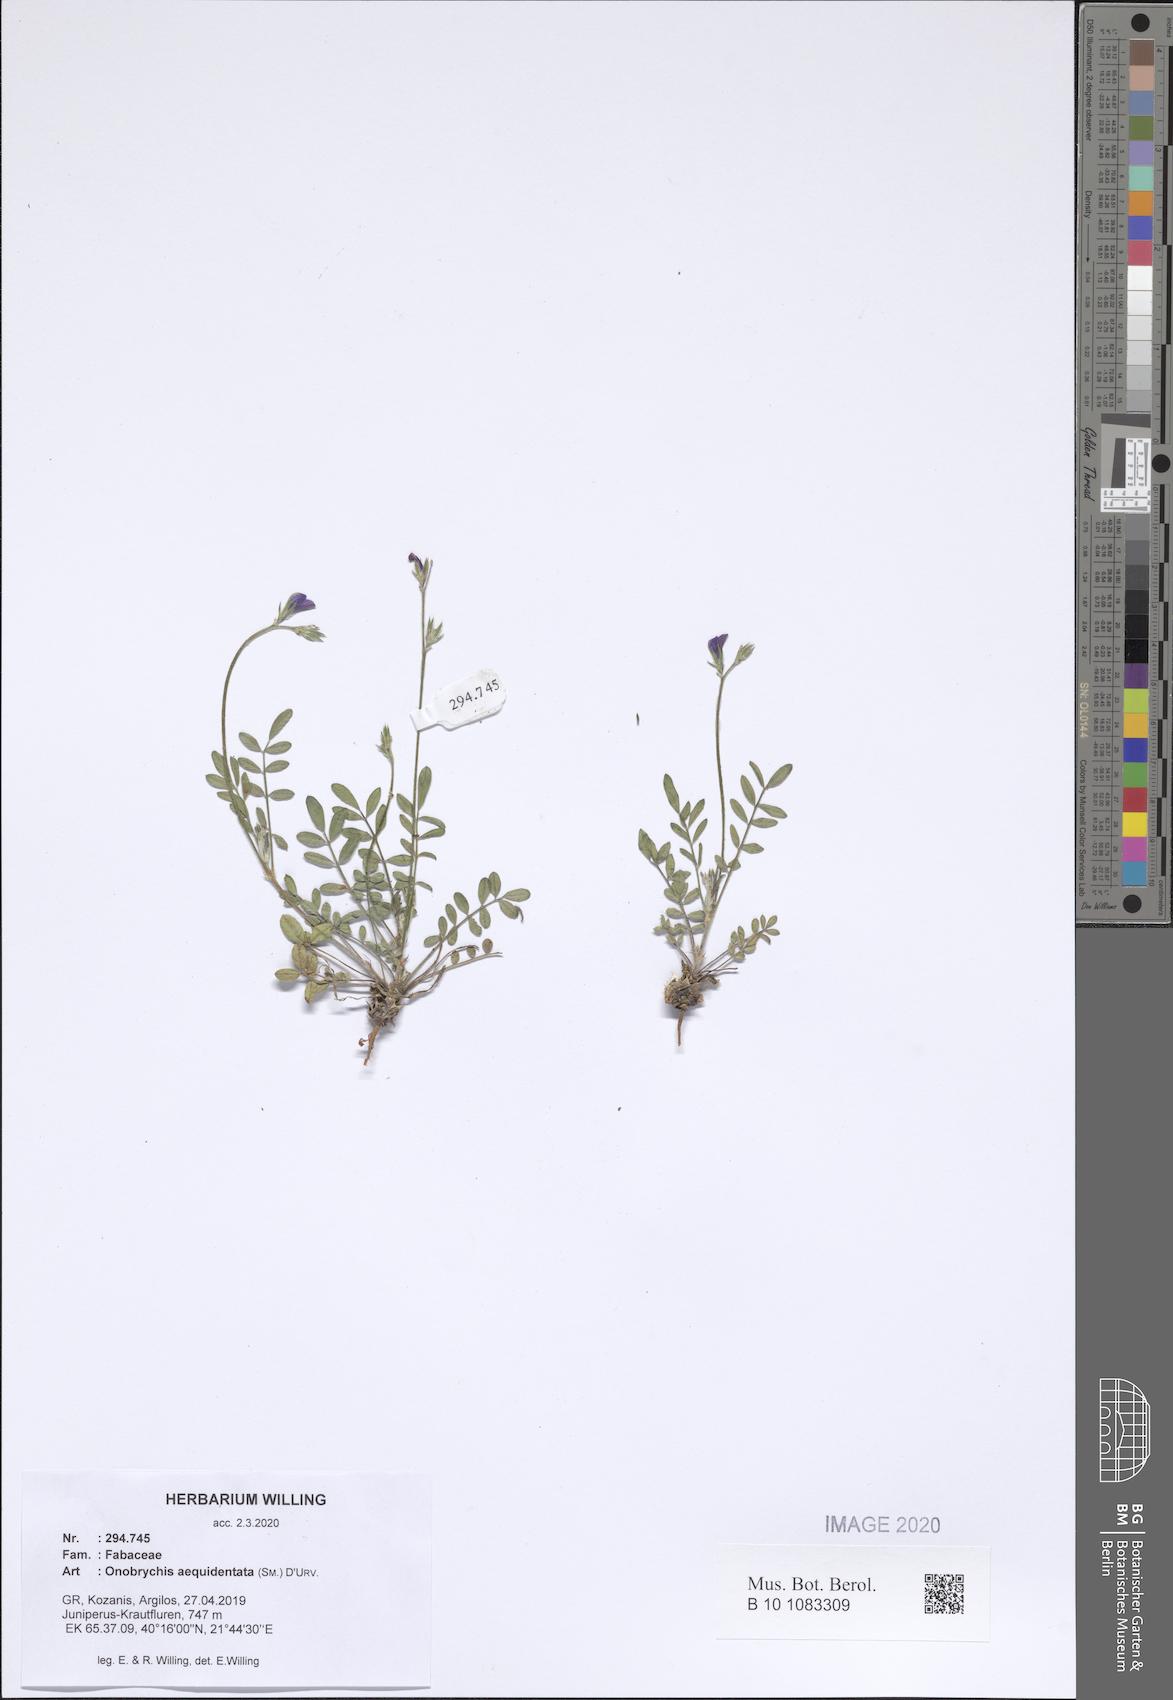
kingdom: Plantae
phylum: Tracheophyta
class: Magnoliopsida
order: Fabales
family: Fabaceae
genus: Onobrychis
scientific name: Onobrychis aequidentata
